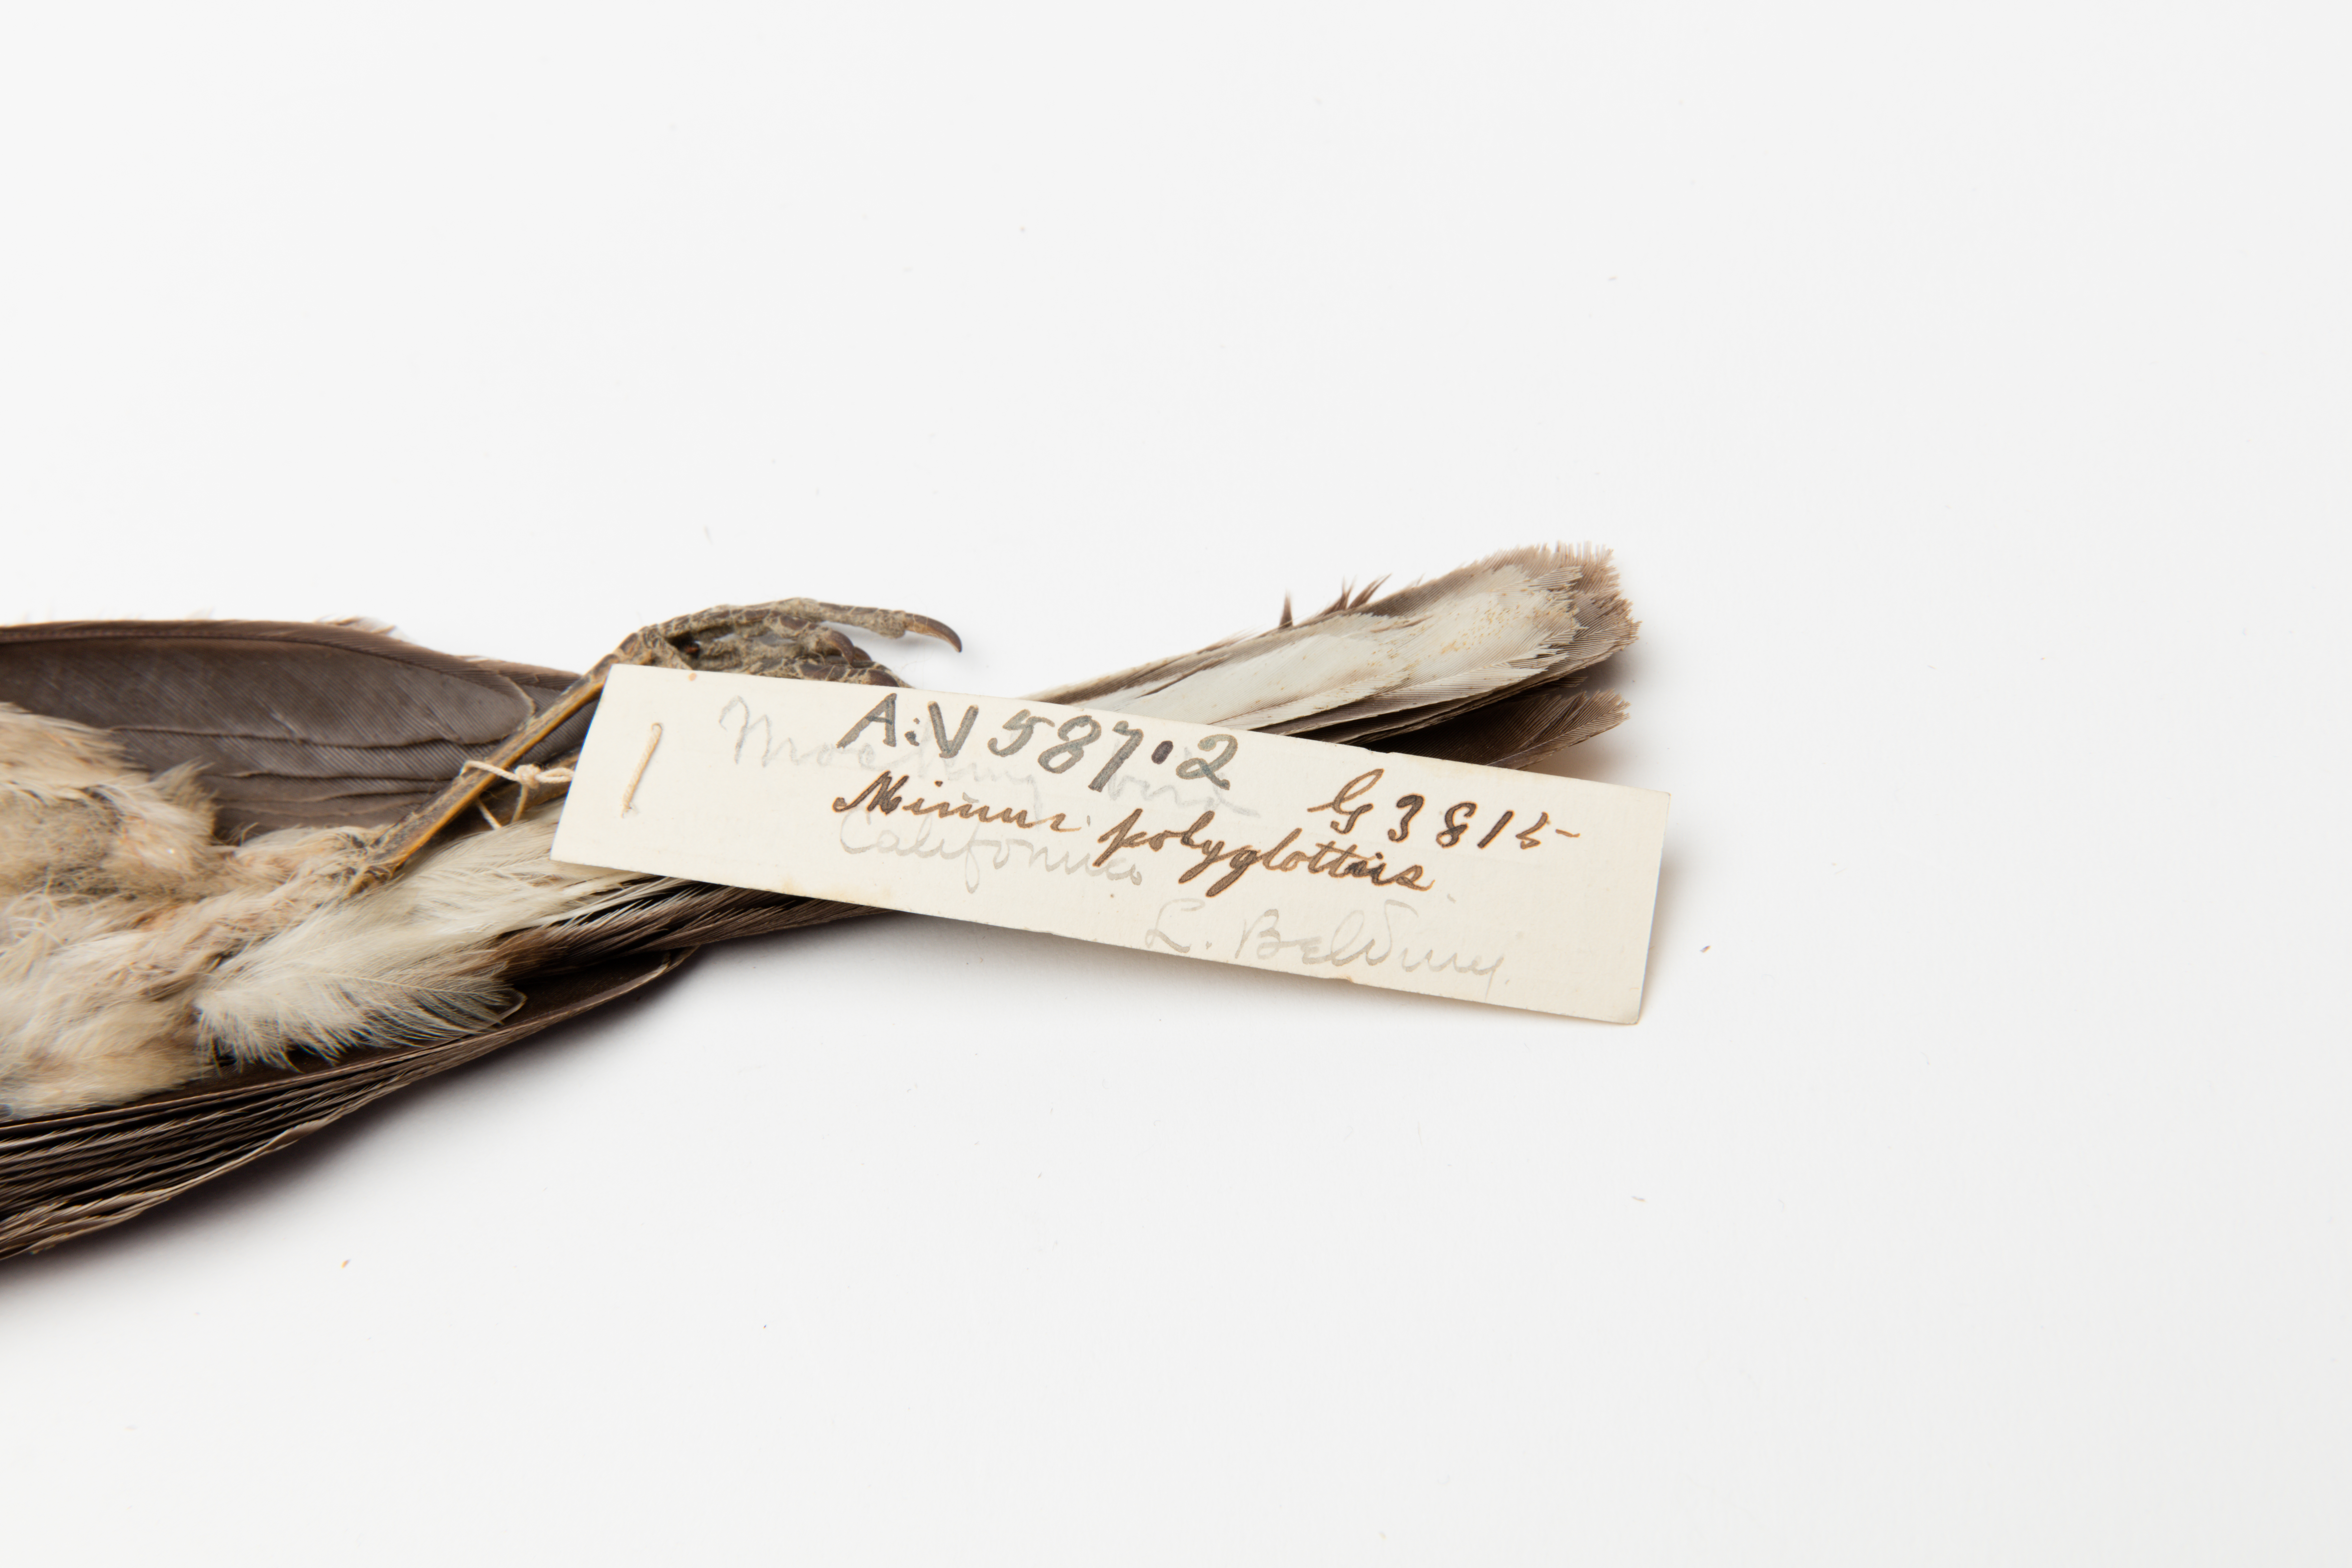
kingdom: Animalia
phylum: Chordata
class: Aves
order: Passeriformes
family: Mimidae
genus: Mimus
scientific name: Mimus polyglottos
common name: Northern mockingbird
